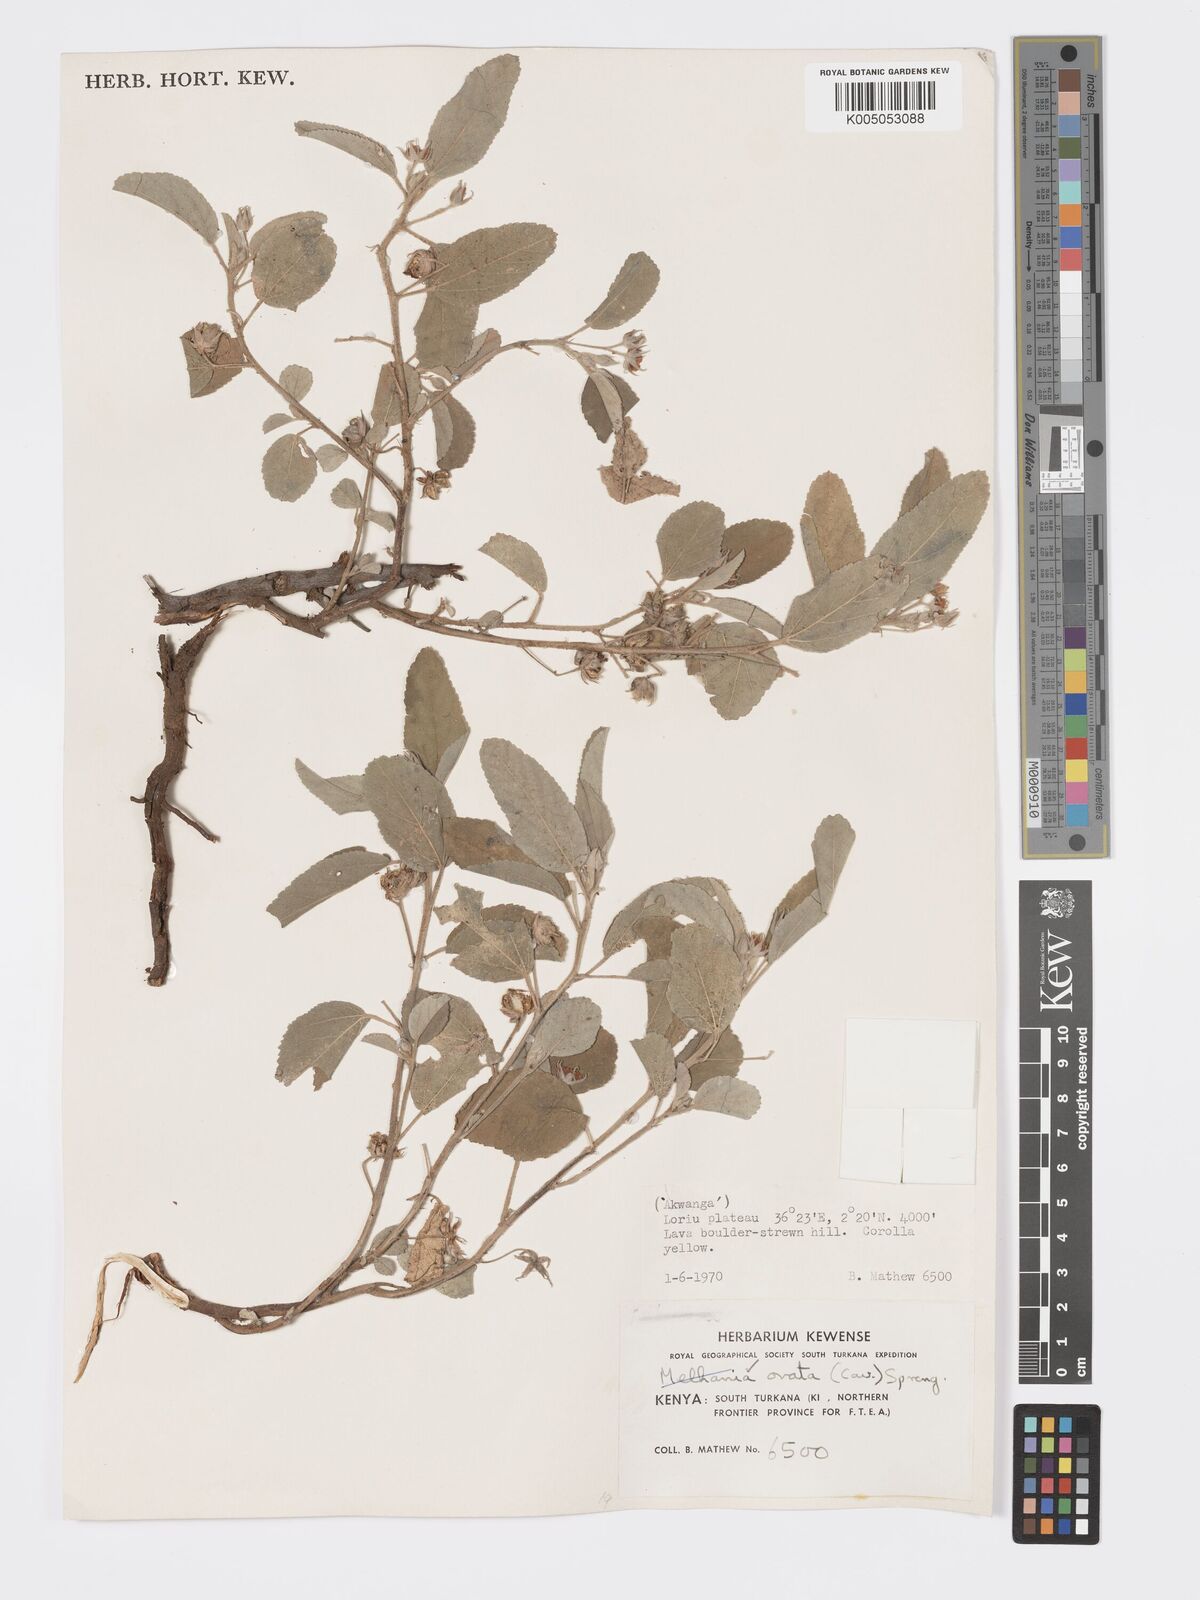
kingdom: Plantae
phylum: Tracheophyta
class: Magnoliopsida
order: Malvales
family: Malvaceae
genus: Melhania
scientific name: Melhania ovata
